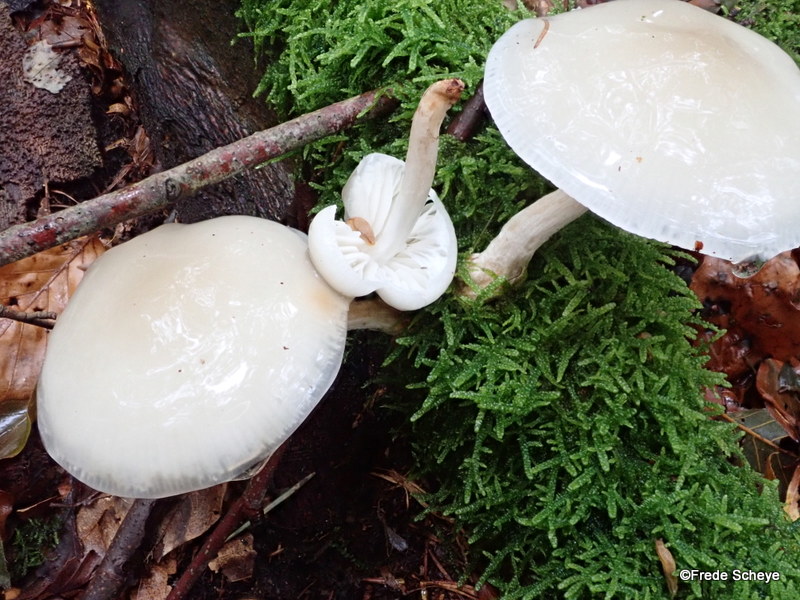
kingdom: Fungi
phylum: Basidiomycota
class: Agaricomycetes
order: Agaricales
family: Physalacriaceae
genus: Mucidula
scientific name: Mucidula mucida
